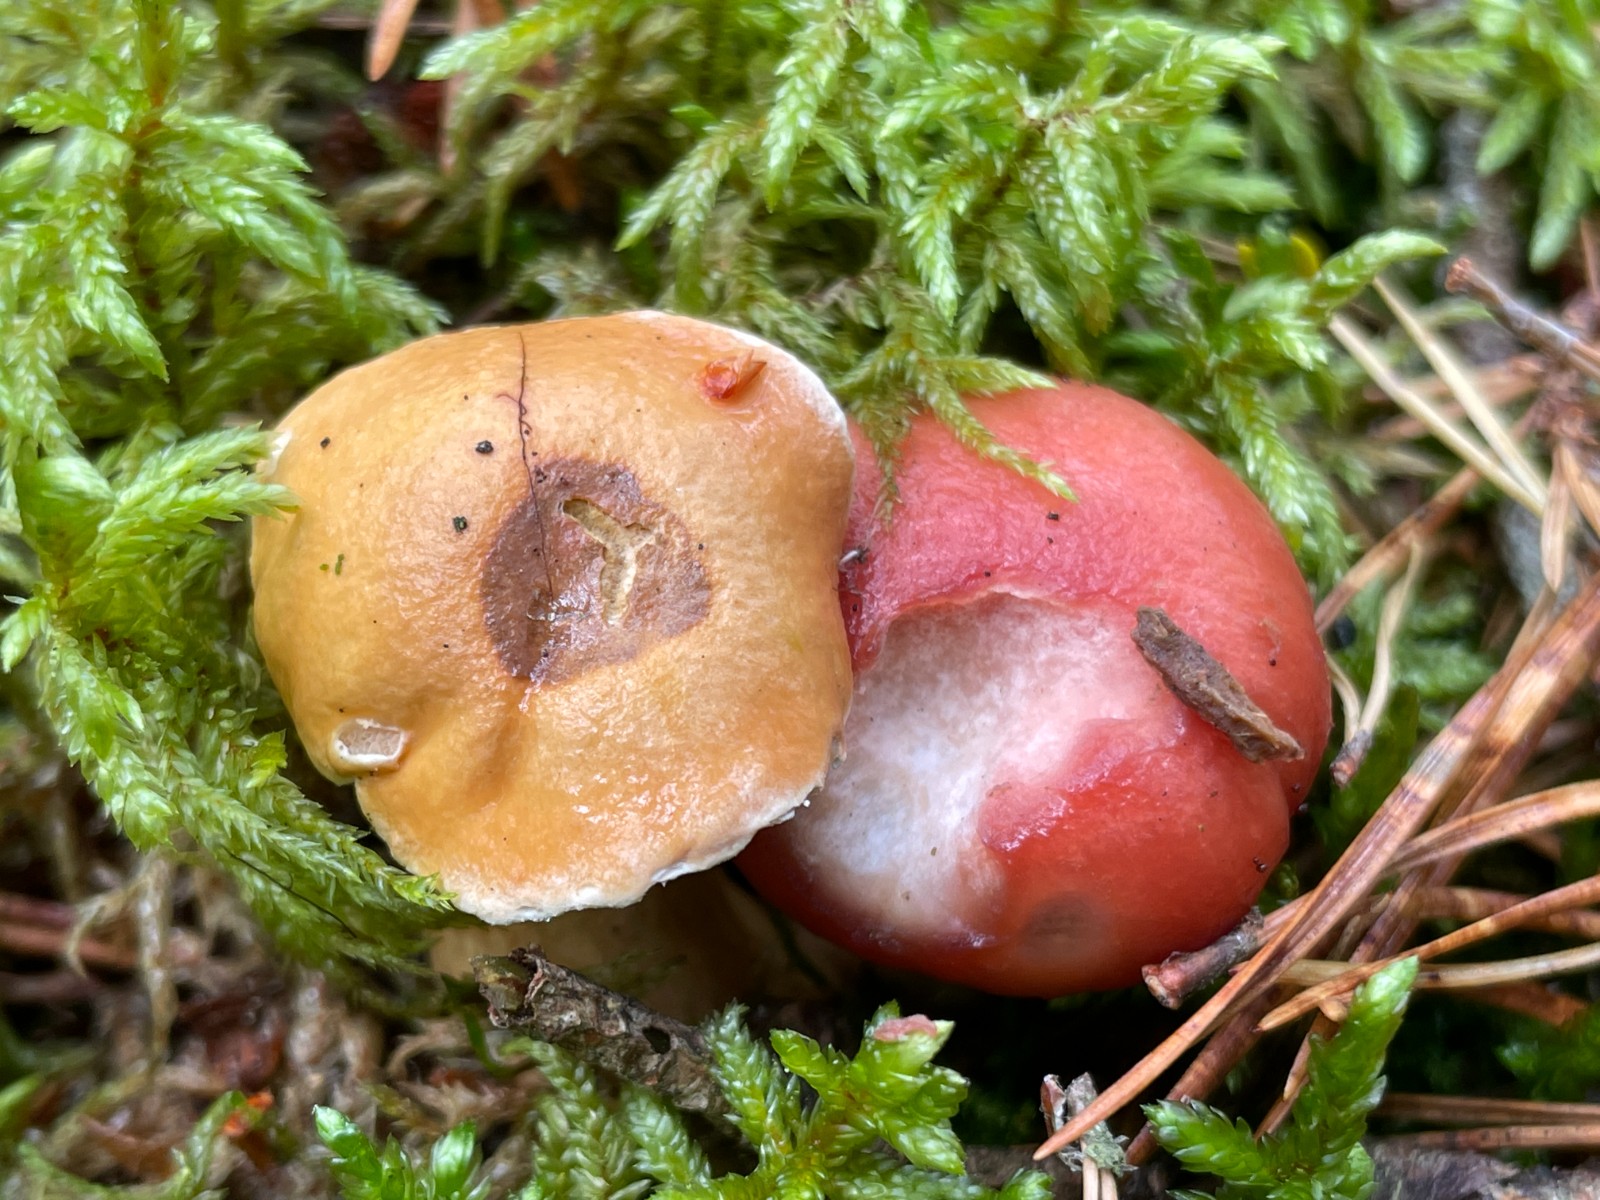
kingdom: Fungi
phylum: Basidiomycota
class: Agaricomycetes
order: Boletales
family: Gomphidiaceae
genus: Gomphidius
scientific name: Gomphidius roseus
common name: rosenrød slimslør
